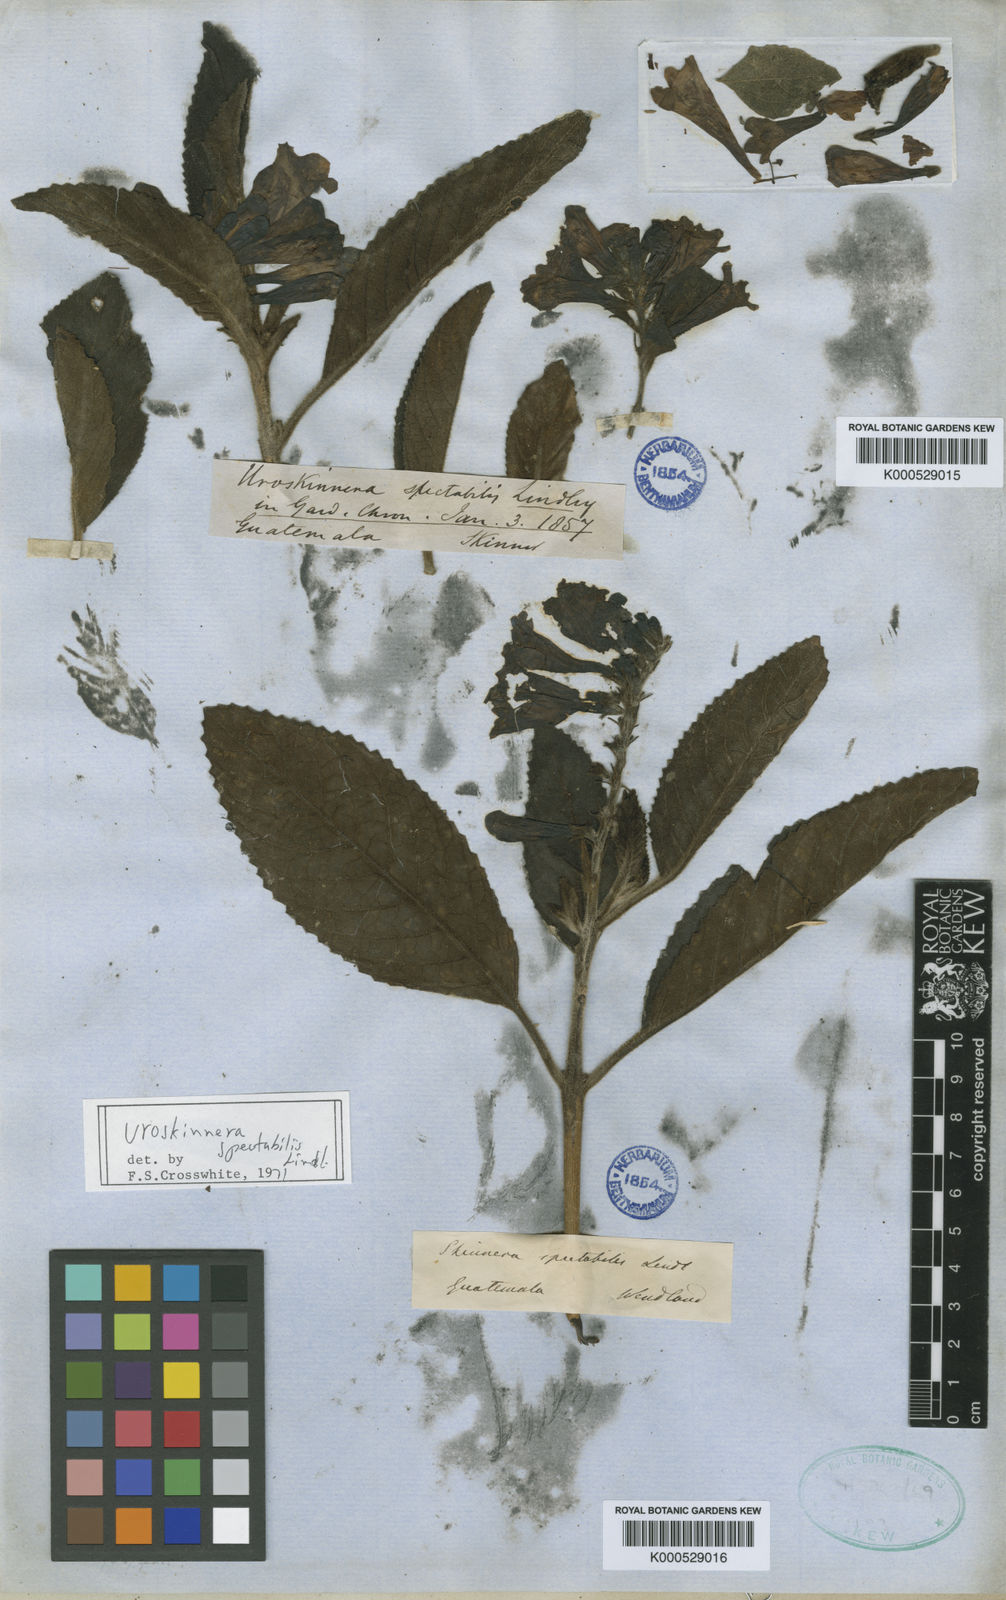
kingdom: Plantae
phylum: Tracheophyta
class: Magnoliopsida
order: Lamiales
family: Plantaginaceae
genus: Uroskinnera
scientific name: Uroskinnera spectabilis
